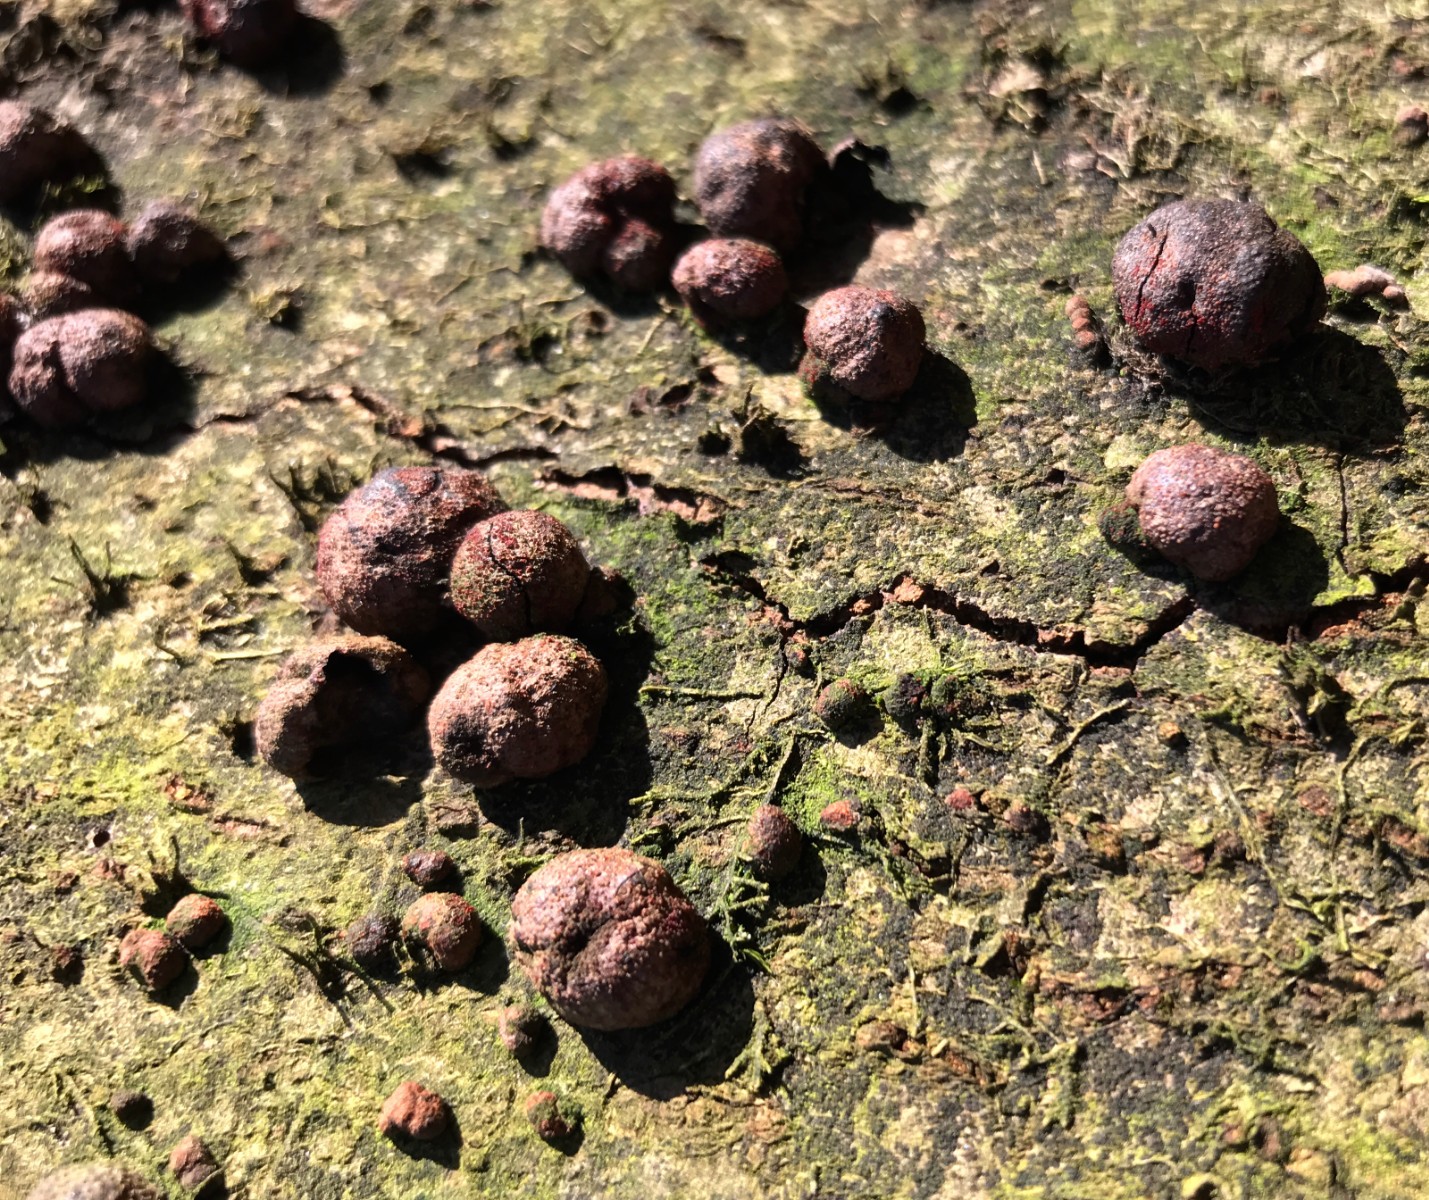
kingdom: Fungi
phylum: Ascomycota
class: Sordariomycetes
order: Xylariales
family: Hypoxylaceae
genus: Hypoxylon
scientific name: Hypoxylon fragiforme
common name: kuljordbær
